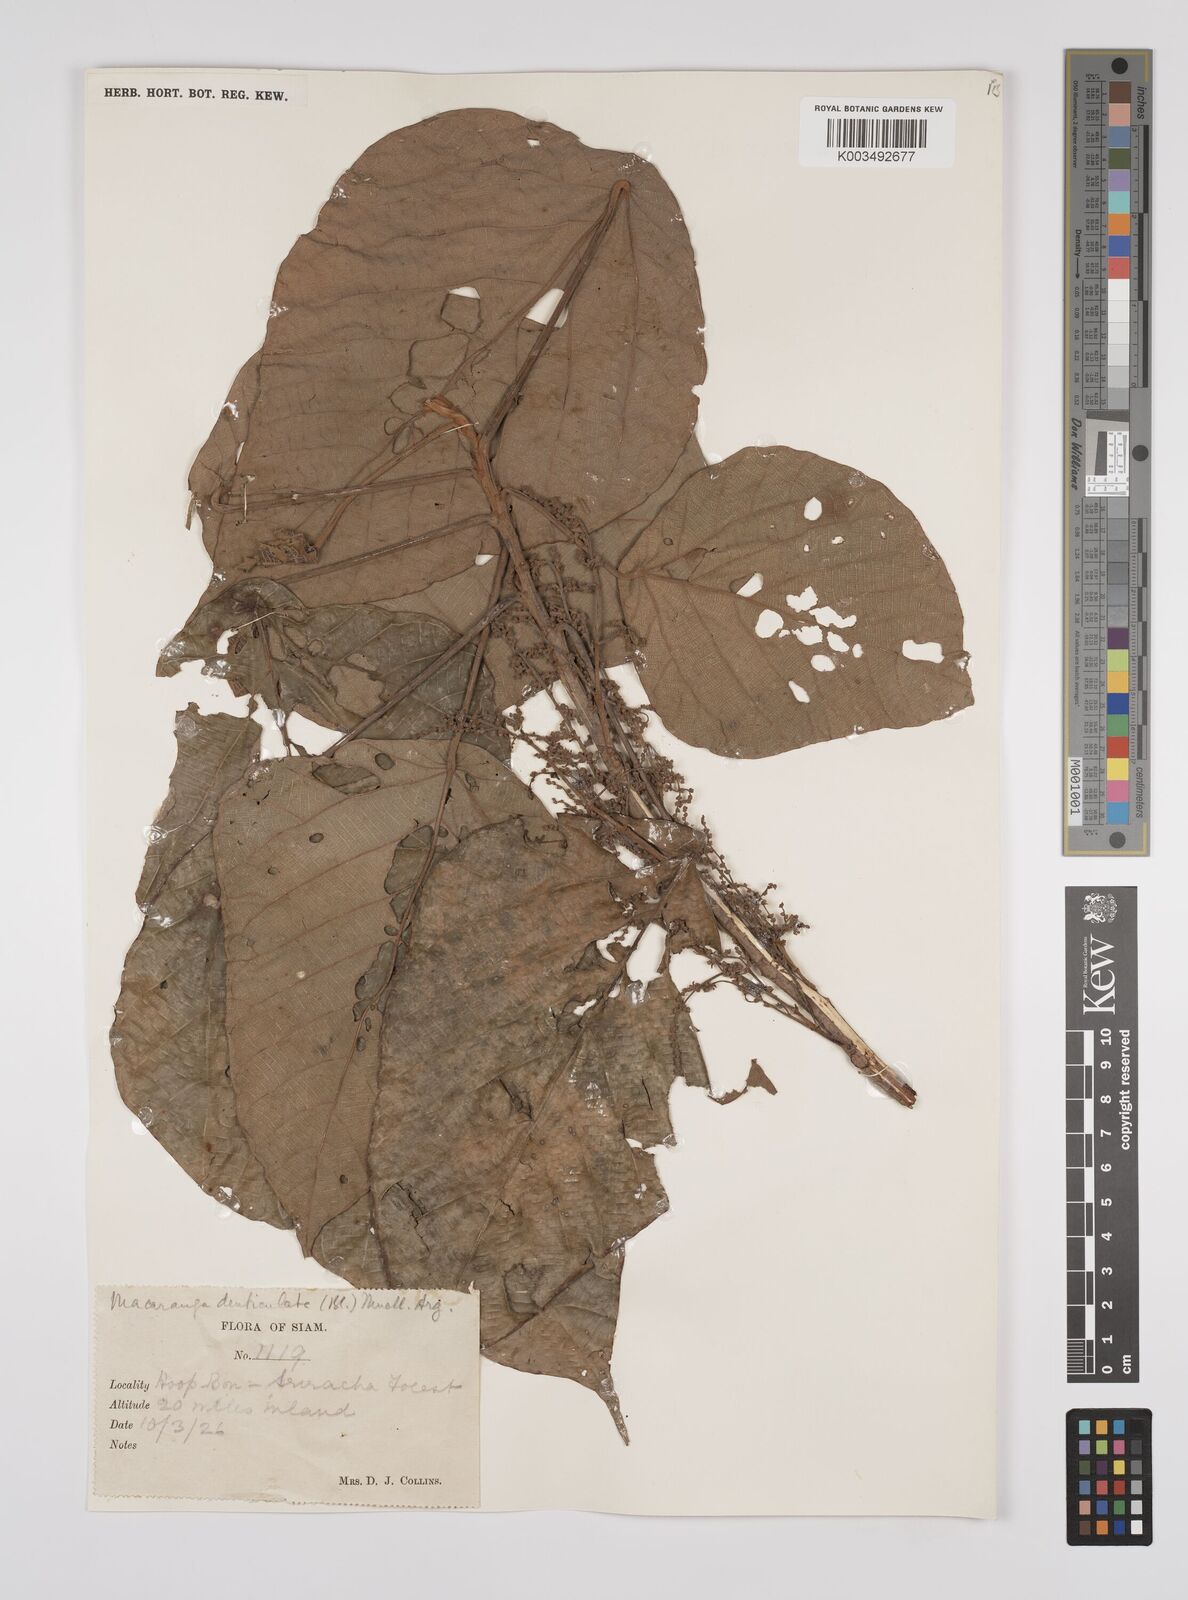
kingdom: Plantae
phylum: Tracheophyta
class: Magnoliopsida
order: Malpighiales
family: Euphorbiaceae
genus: Macaranga
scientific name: Macaranga denticulata
